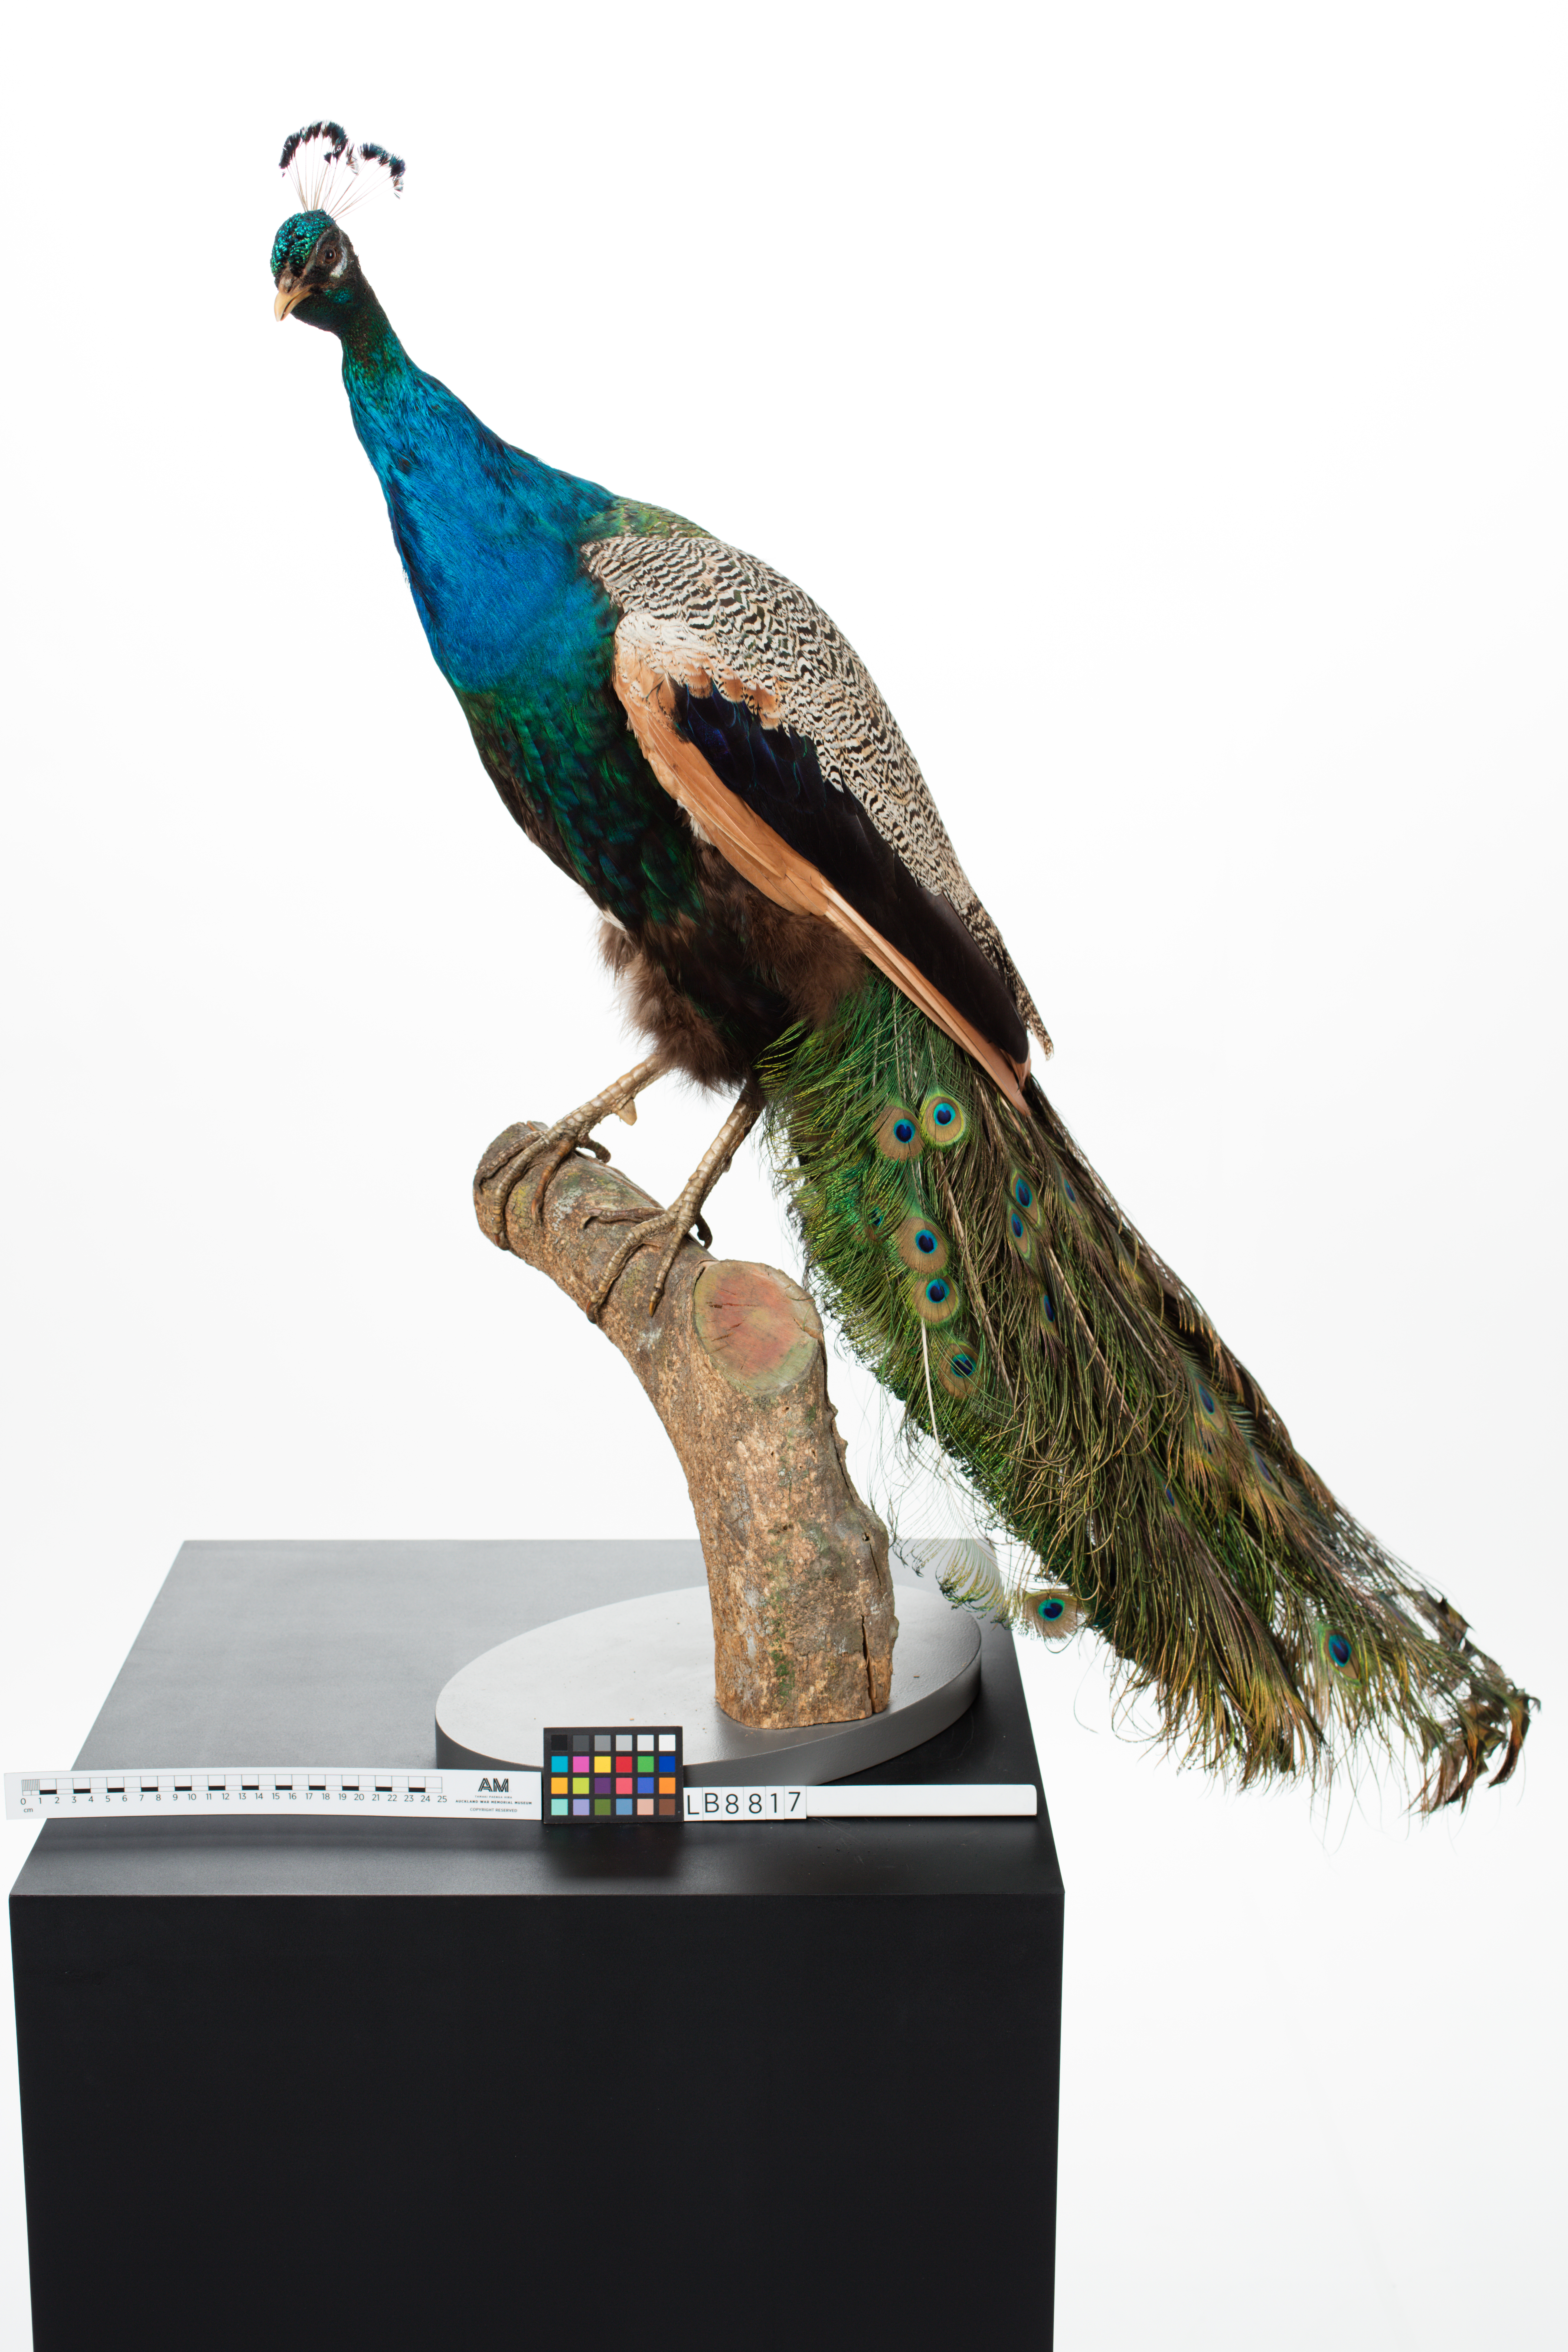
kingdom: Animalia
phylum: Chordata
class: Aves
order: Galliformes
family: Phasianidae
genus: Pavo
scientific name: Pavo cristatus
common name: Indian peafowl
